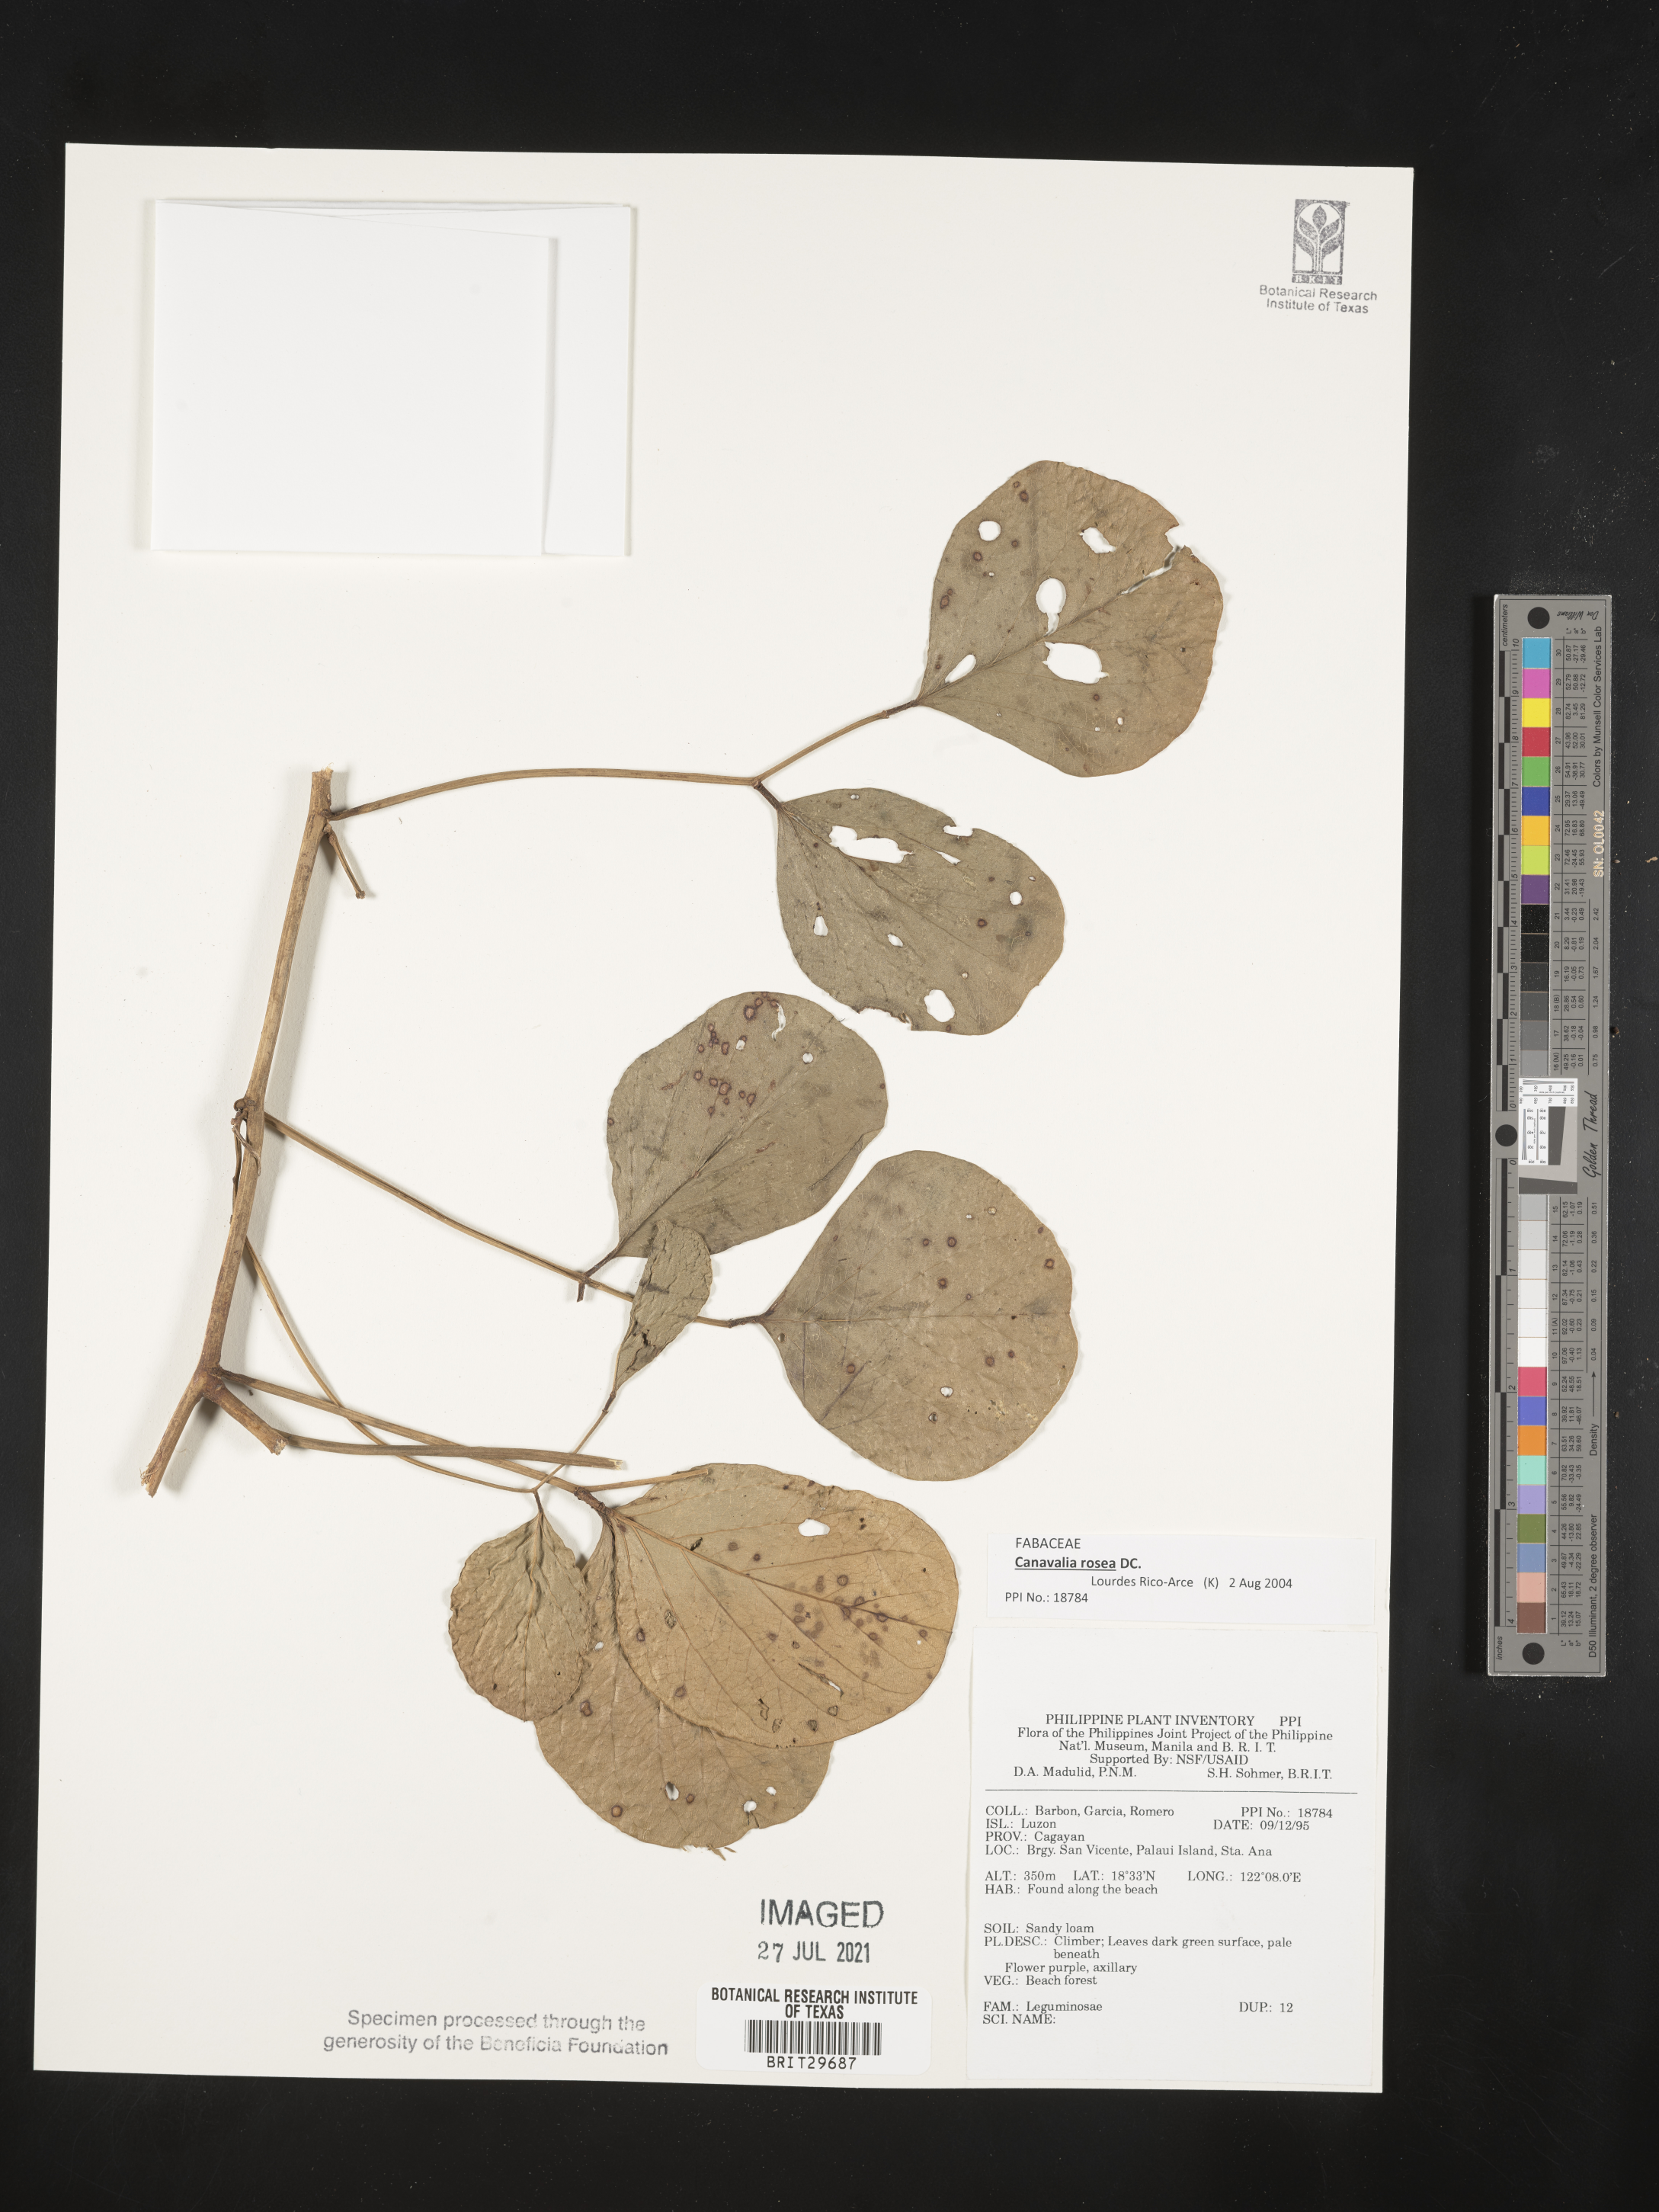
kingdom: Plantae
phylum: Tracheophyta
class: Magnoliopsida
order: Fabales
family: Fabaceae
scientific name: Fabaceae
